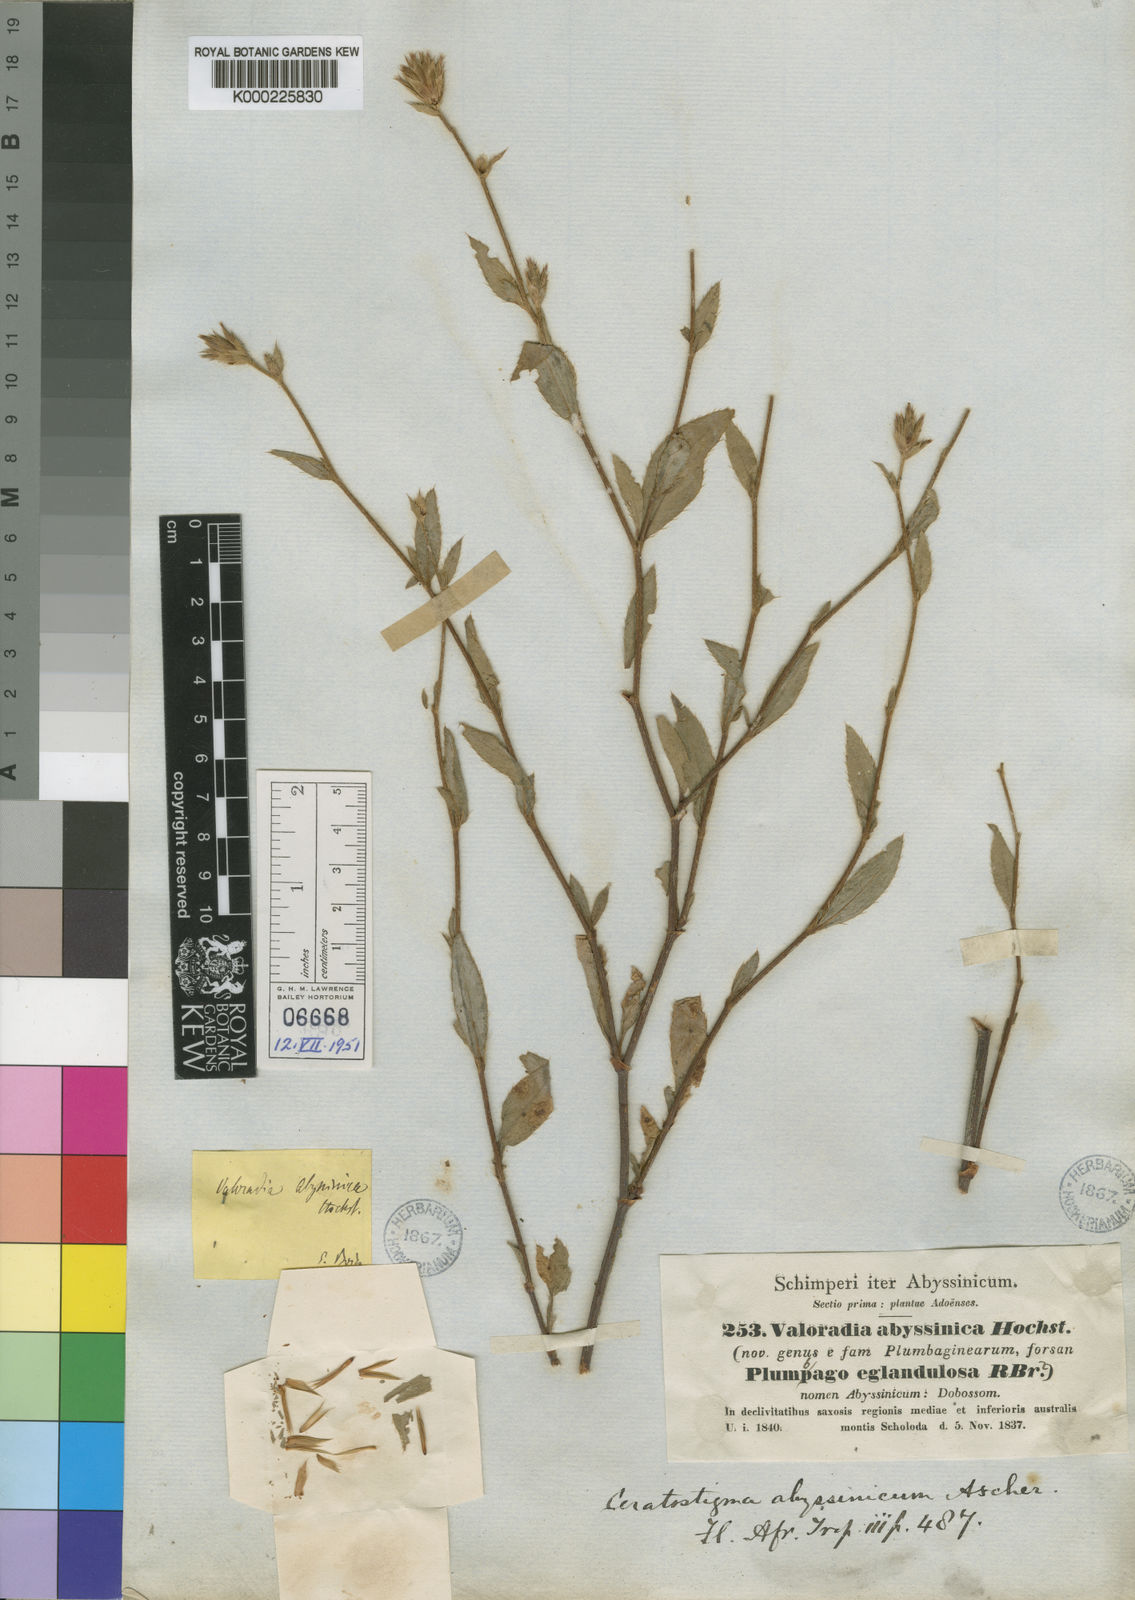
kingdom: Plantae
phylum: Tracheophyta
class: Magnoliopsida
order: Caryophyllales
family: Plumbaginaceae
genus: Ceratostigma
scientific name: Ceratostigma abyssinicum
